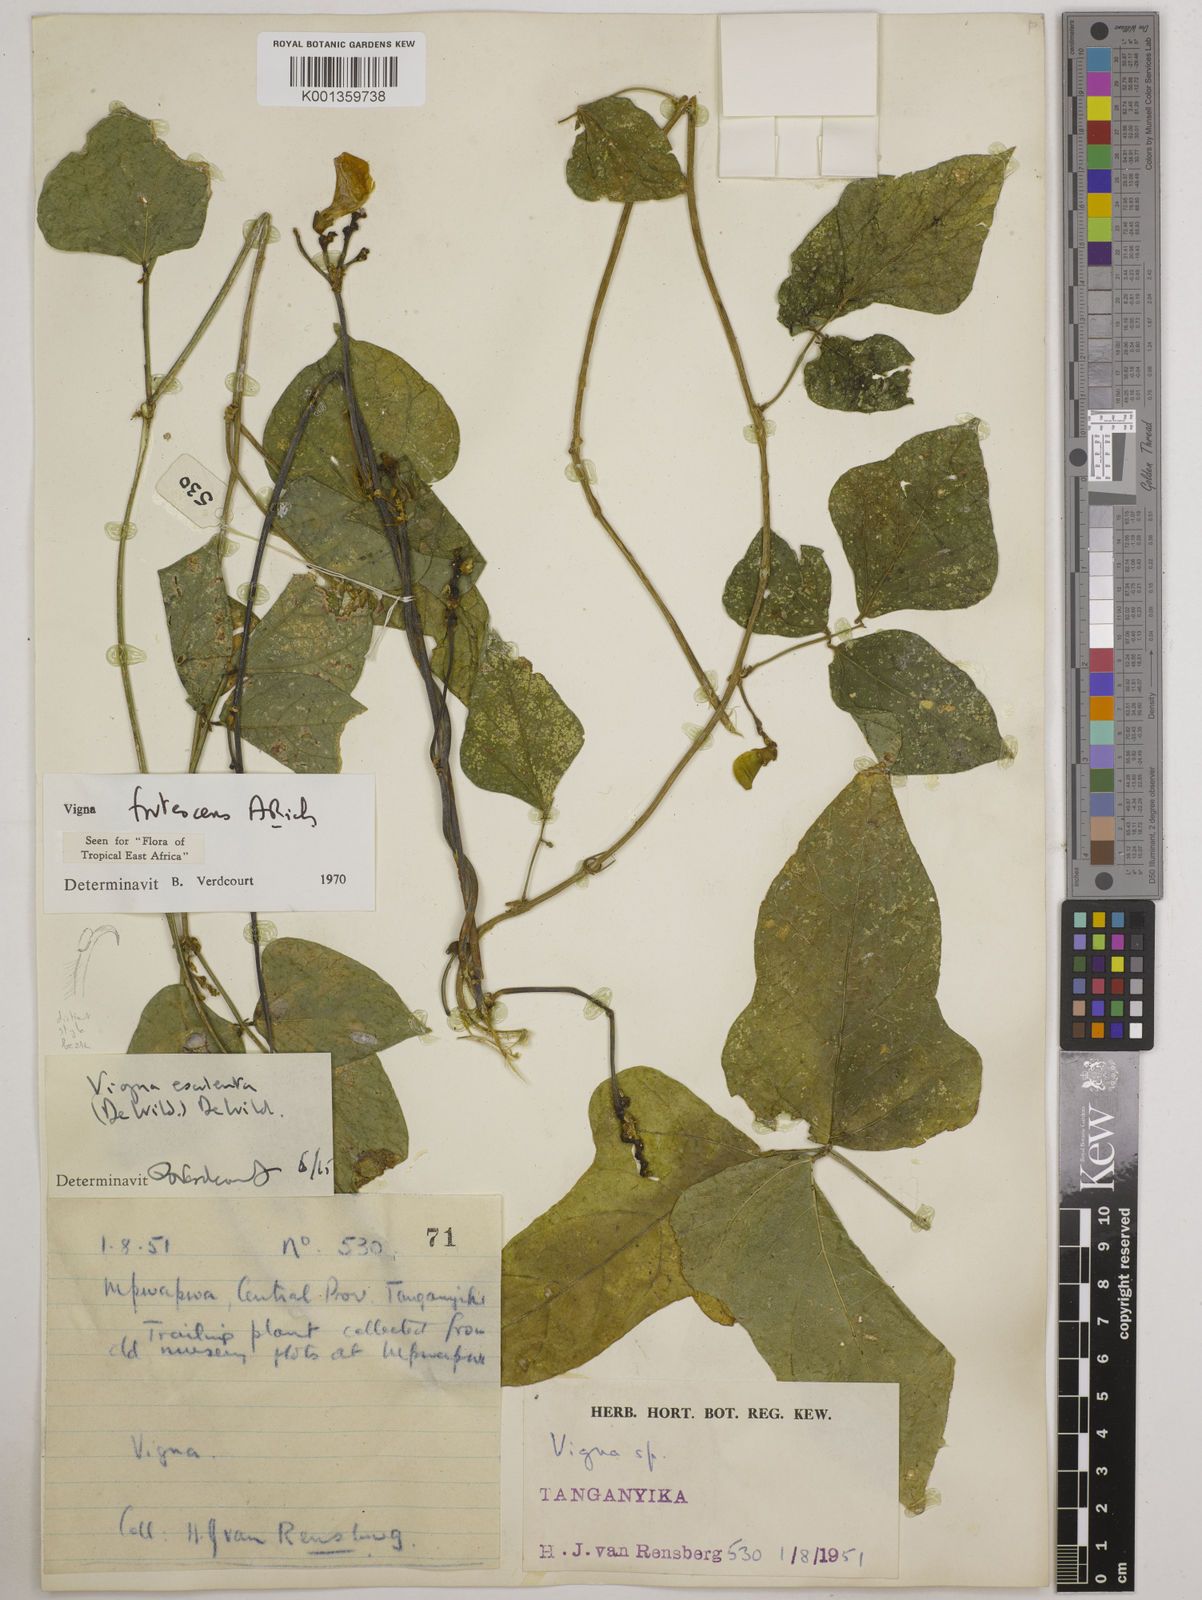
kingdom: Plantae
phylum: Tracheophyta
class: Magnoliopsida
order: Fabales
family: Fabaceae
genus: Vigna
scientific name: Vigna frutescens
